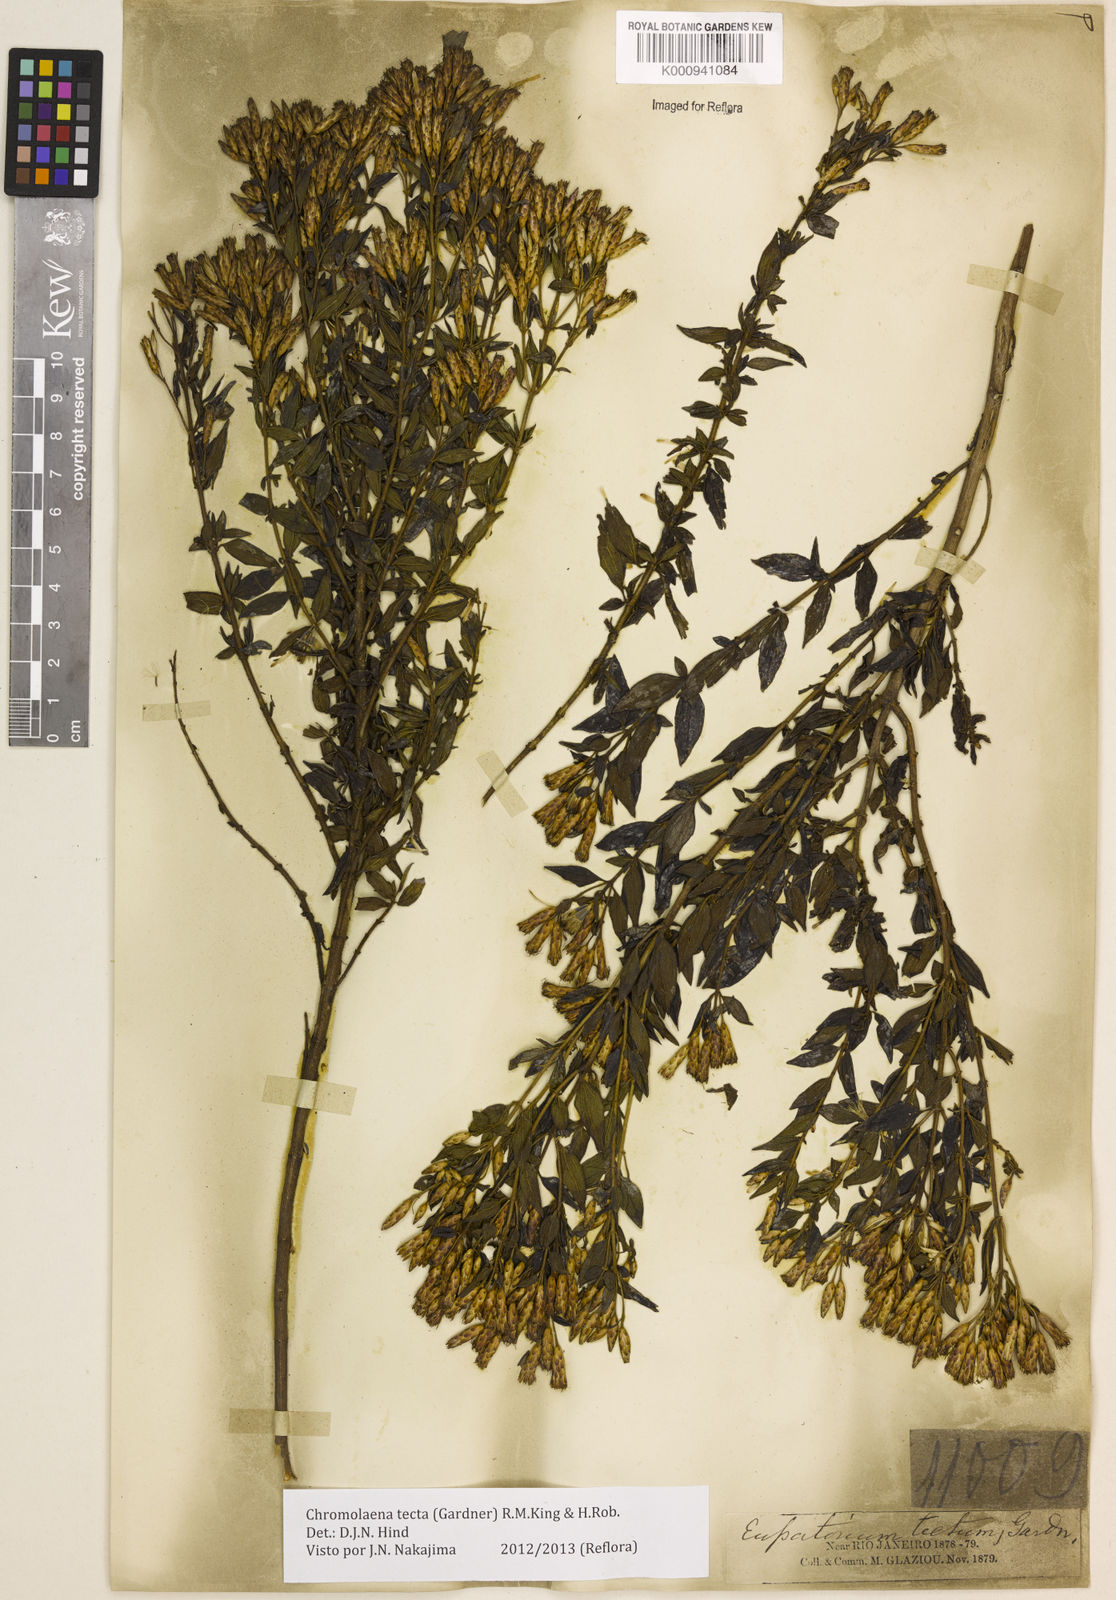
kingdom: Plantae
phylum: Tracheophyta
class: Magnoliopsida
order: Asterales
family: Asteraceae
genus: Chromolaena
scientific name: Chromolaena tecta
